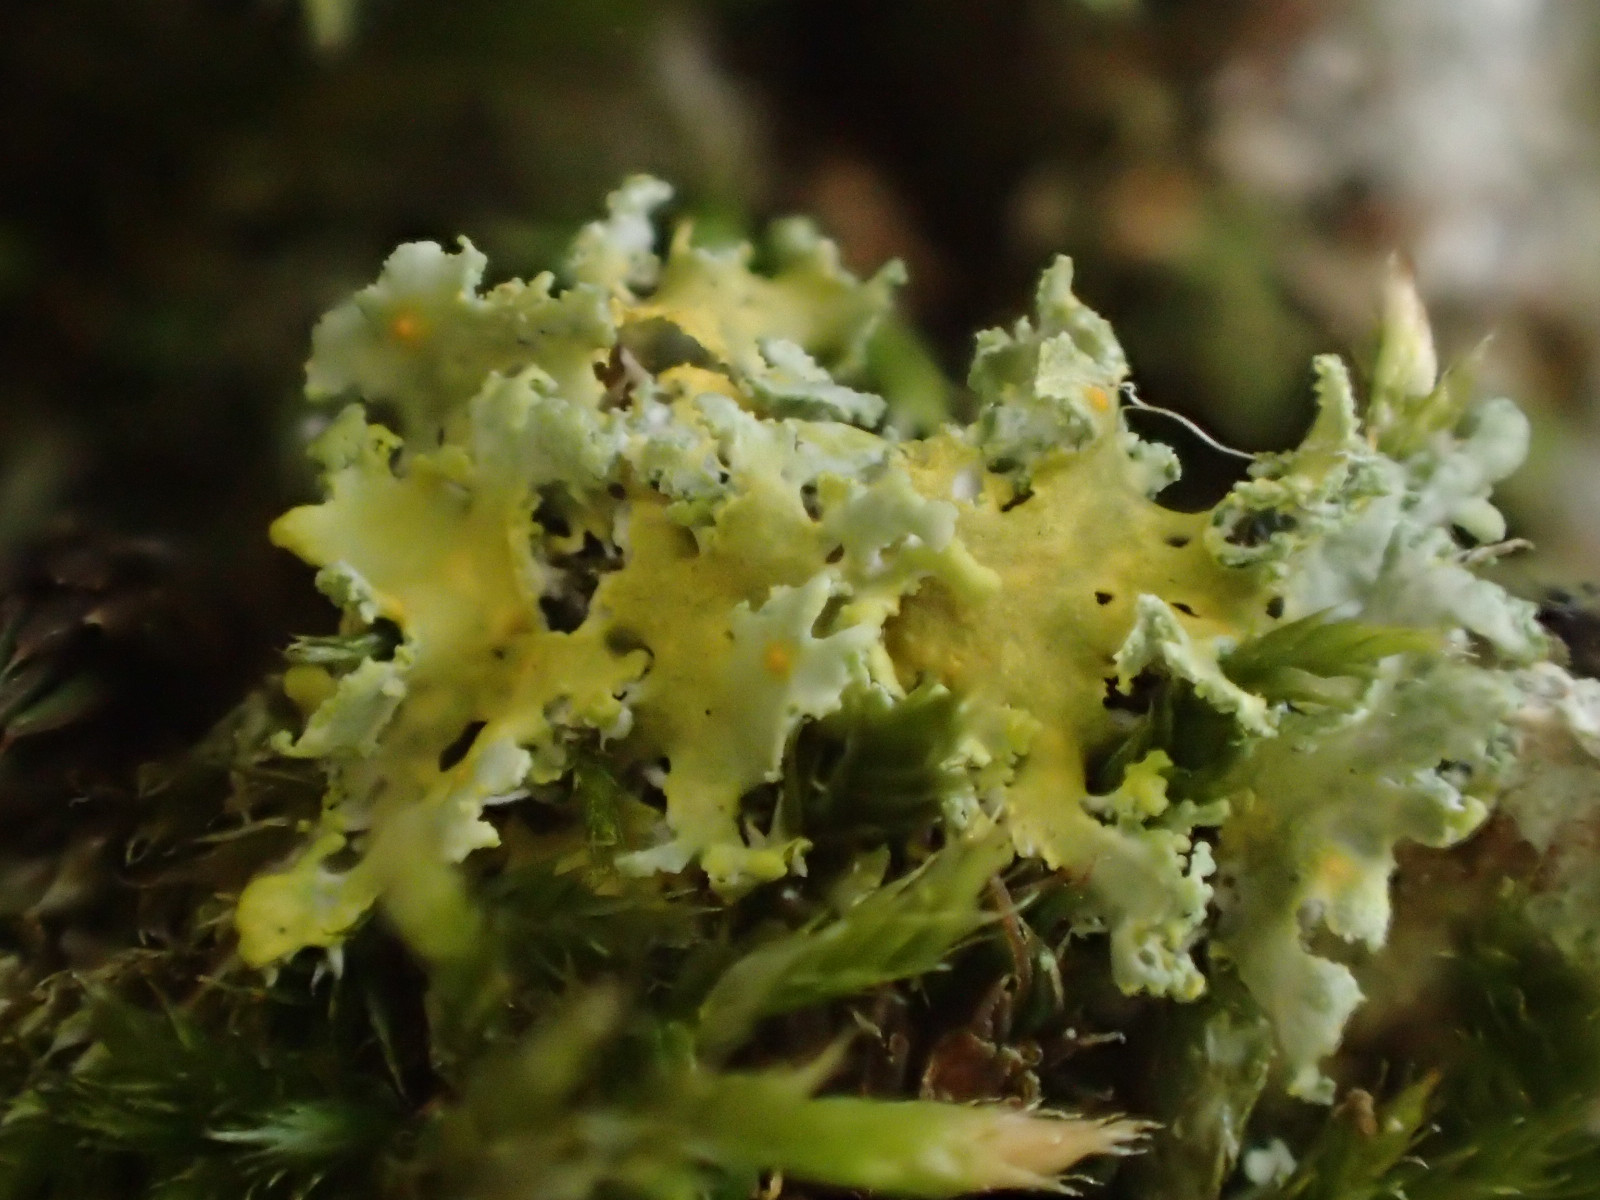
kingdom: Fungi
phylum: Ascomycota
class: Lecanoromycetes
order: Teloschistales
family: Teloschistaceae
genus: Polycauliona
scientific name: Polycauliona candelaria
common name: tue-orangelav
